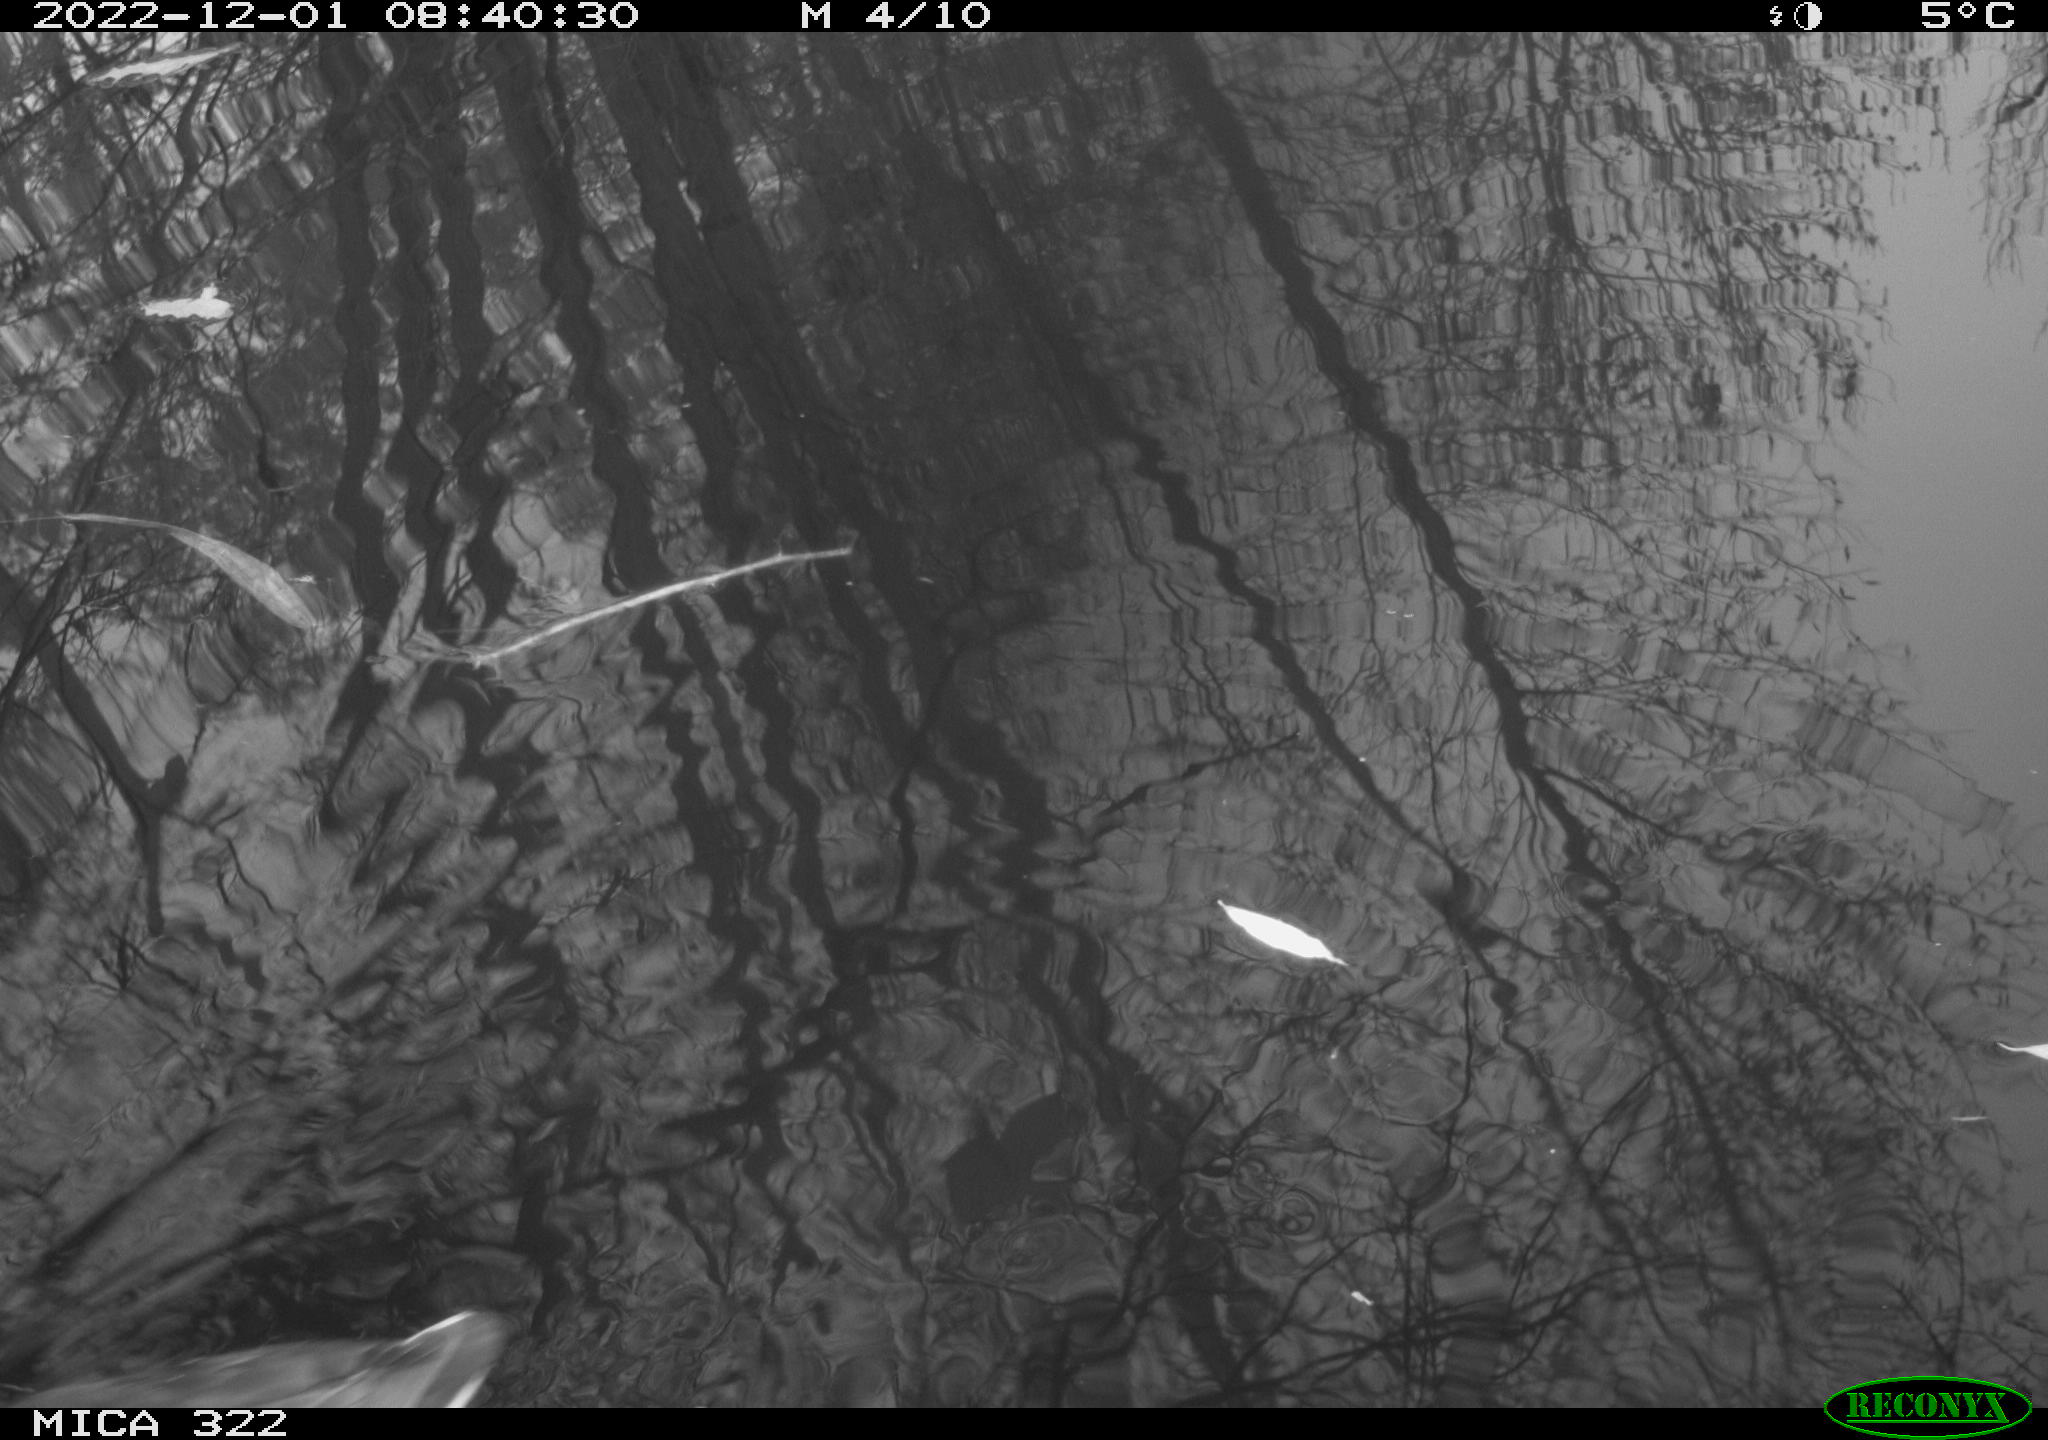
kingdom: Animalia
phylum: Chordata
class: Aves
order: Gruiformes
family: Rallidae
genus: Gallinula
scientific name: Gallinula chloropus
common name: Common moorhen
